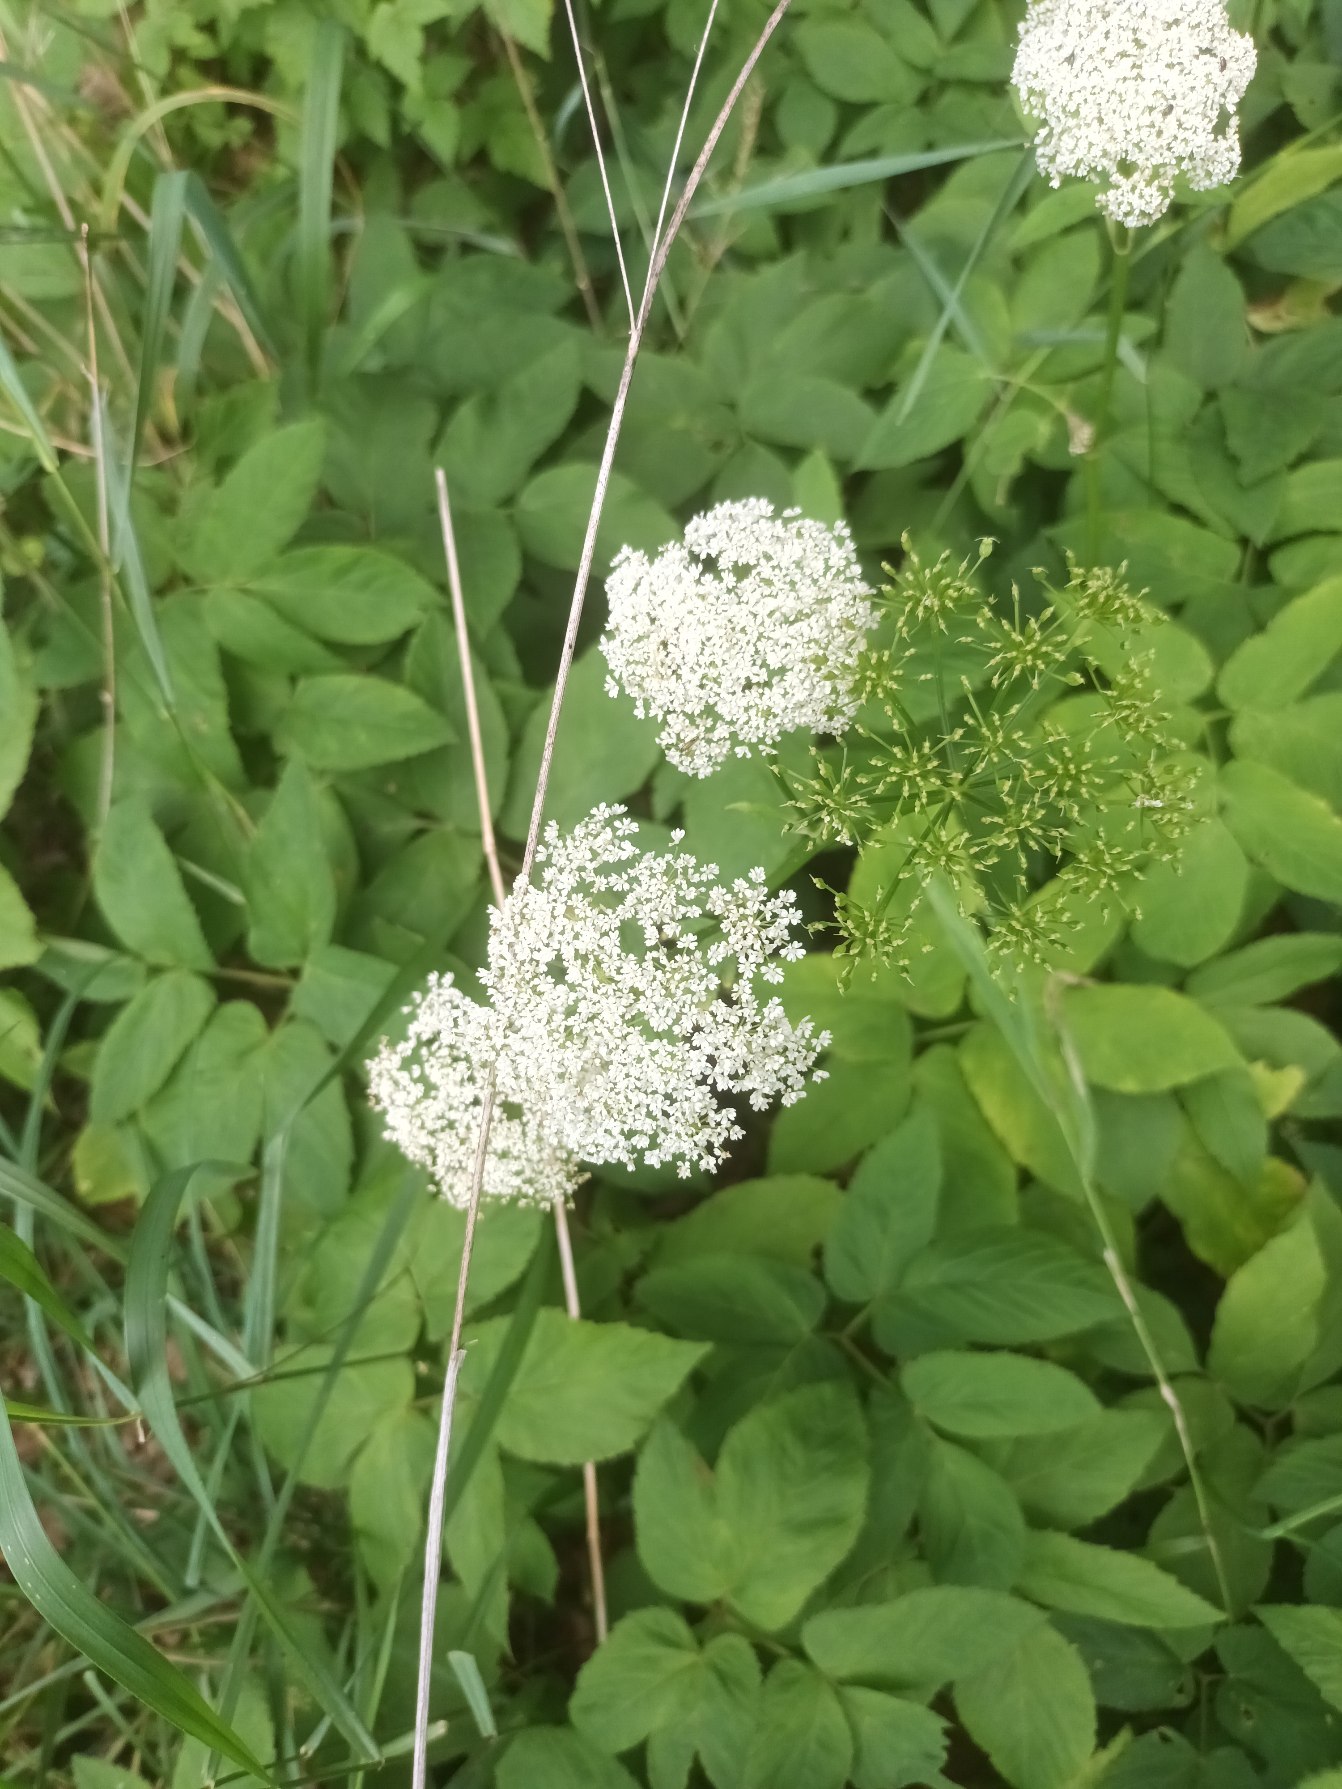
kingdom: Plantae
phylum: Tracheophyta
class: Magnoliopsida
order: Apiales
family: Apiaceae
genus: Aegopodium
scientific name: Aegopodium podagraria
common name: Skvalderkål
